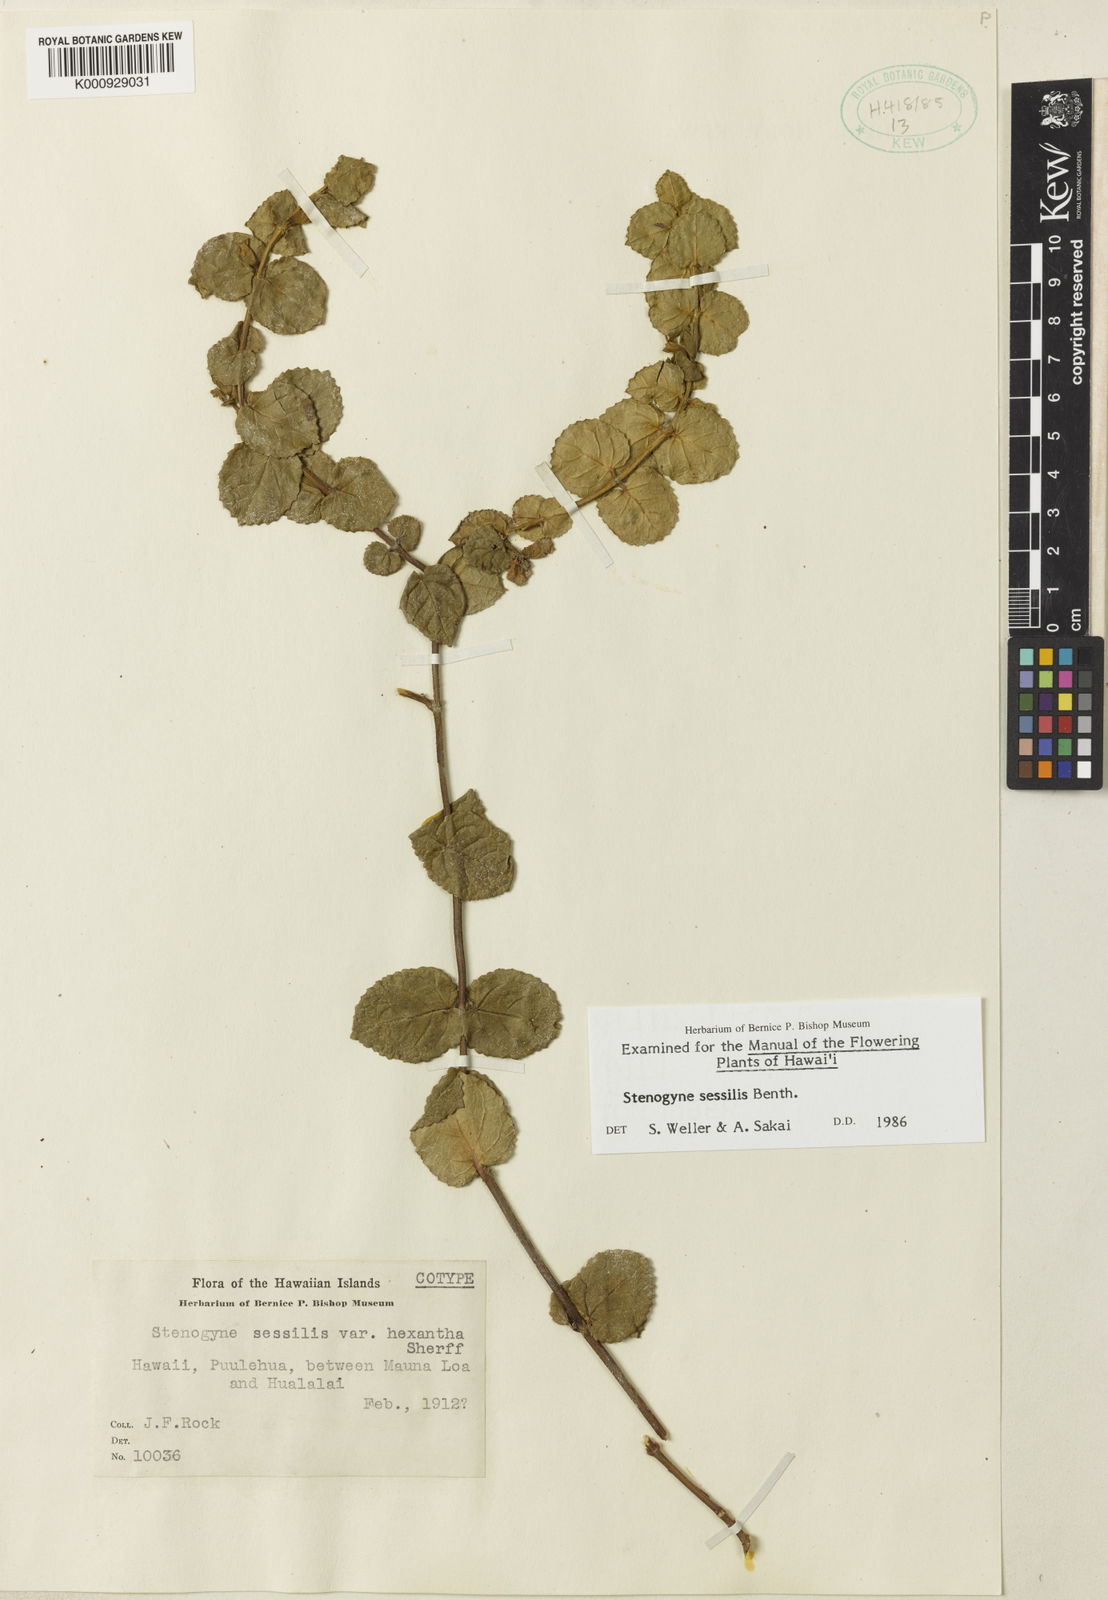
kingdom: Plantae
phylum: Tracheophyta
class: Magnoliopsida
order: Lamiales
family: Lamiaceae
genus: Phyllostegia
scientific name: Phyllostegia glabra
